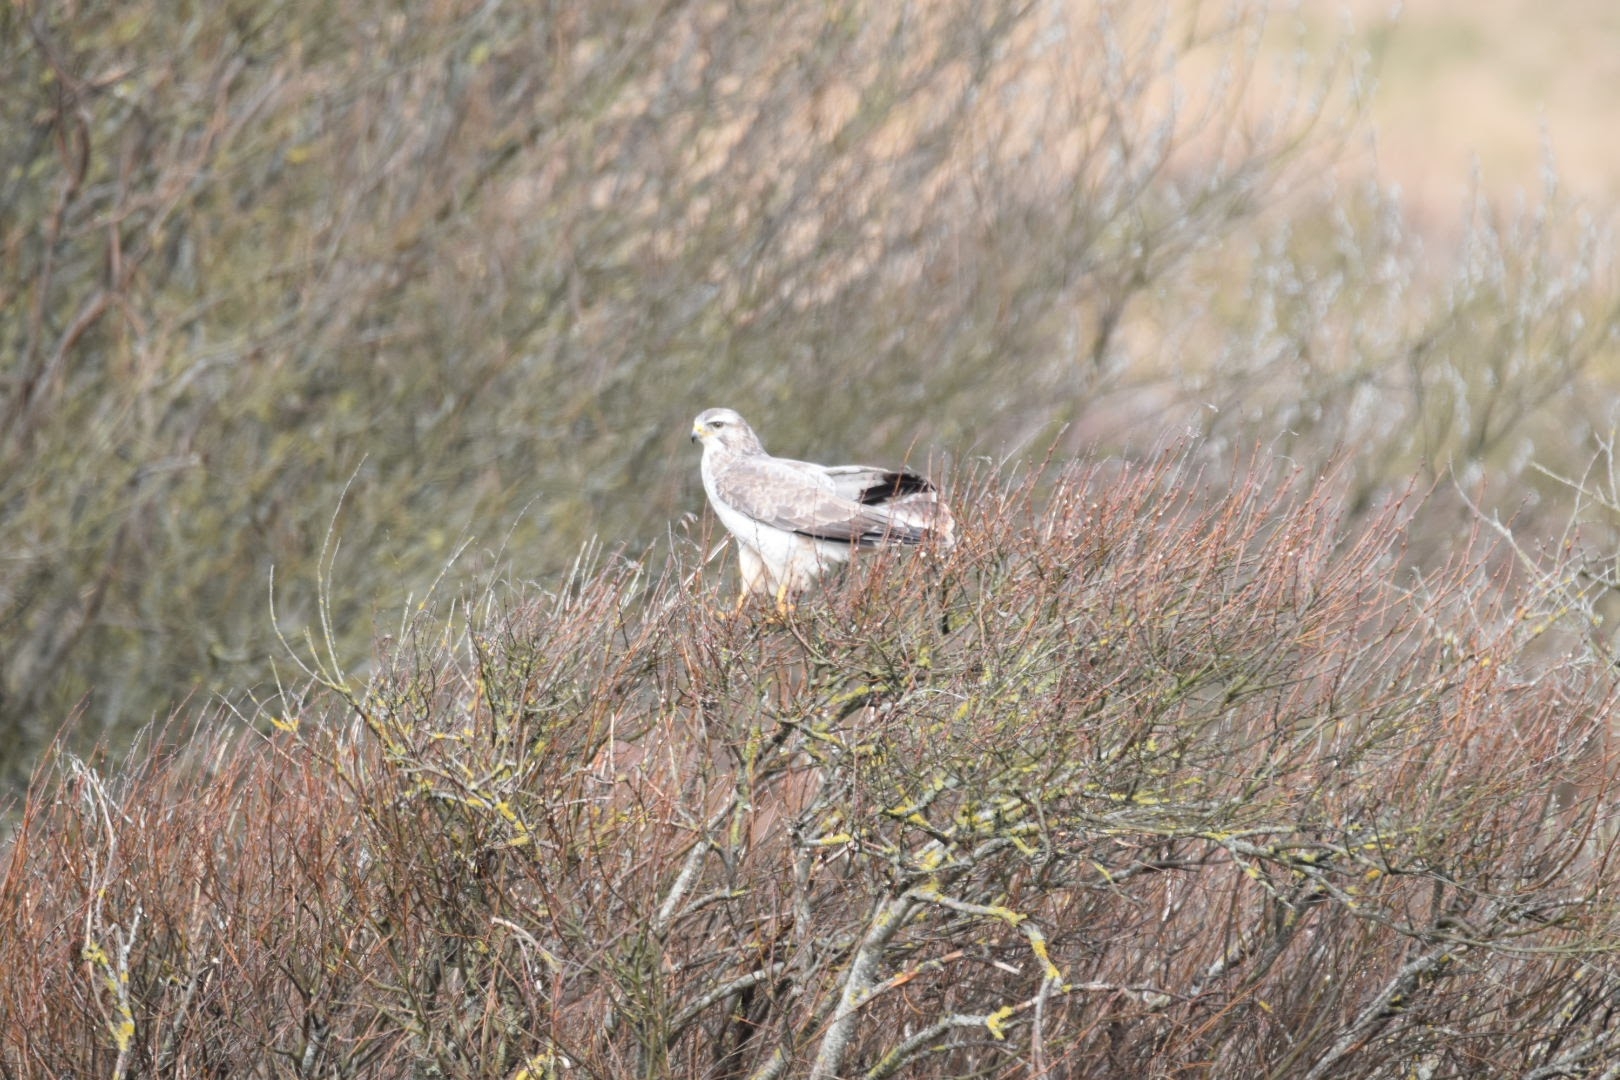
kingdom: Animalia
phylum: Chordata
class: Aves
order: Accipitriformes
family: Accipitridae
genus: Buteo
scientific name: Buteo buteo
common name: Musvåge
